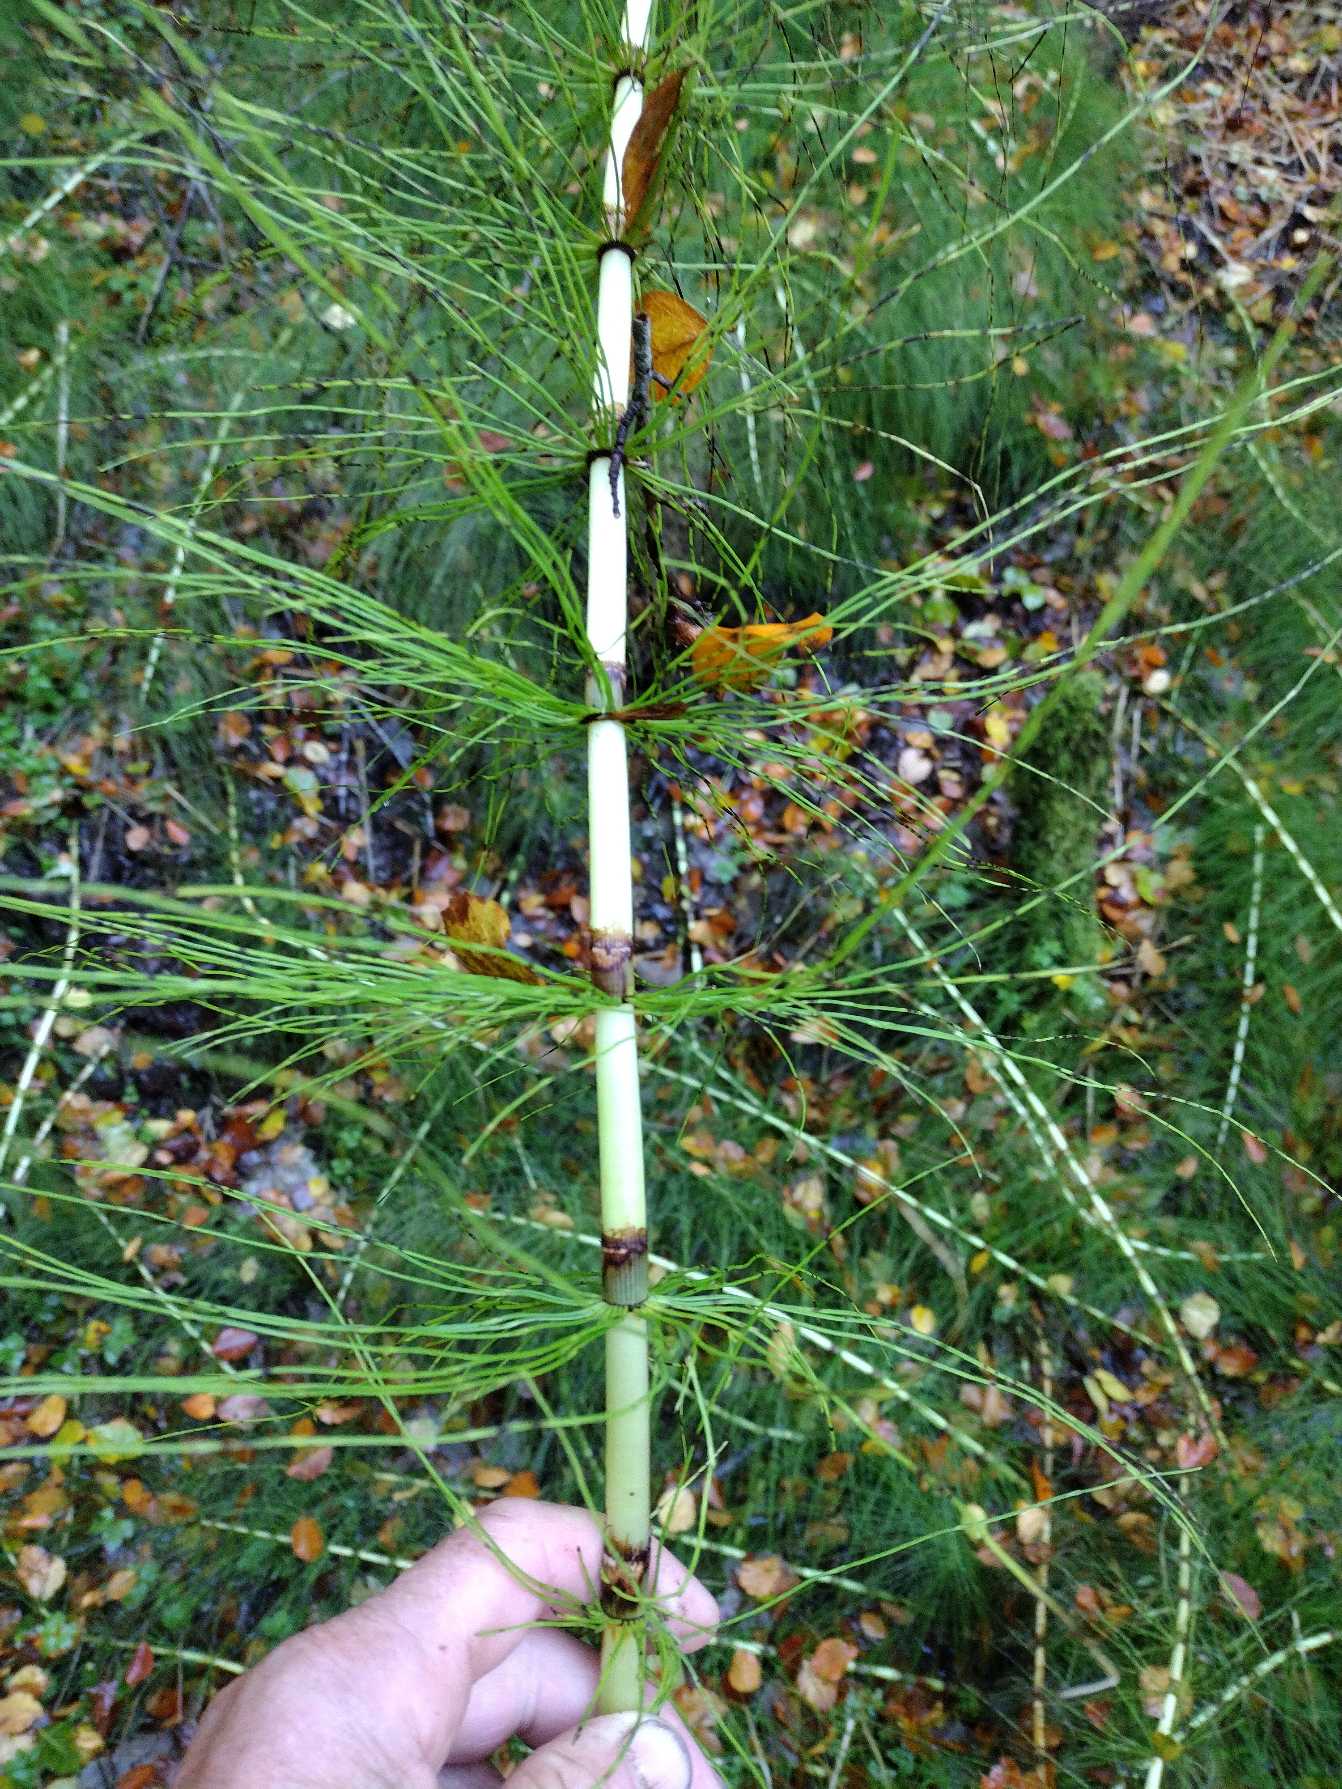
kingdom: Plantae
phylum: Tracheophyta
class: Polypodiopsida
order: Equisetales
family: Equisetaceae
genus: Equisetum
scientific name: Equisetum telmateia
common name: Elfenbens-padderok
